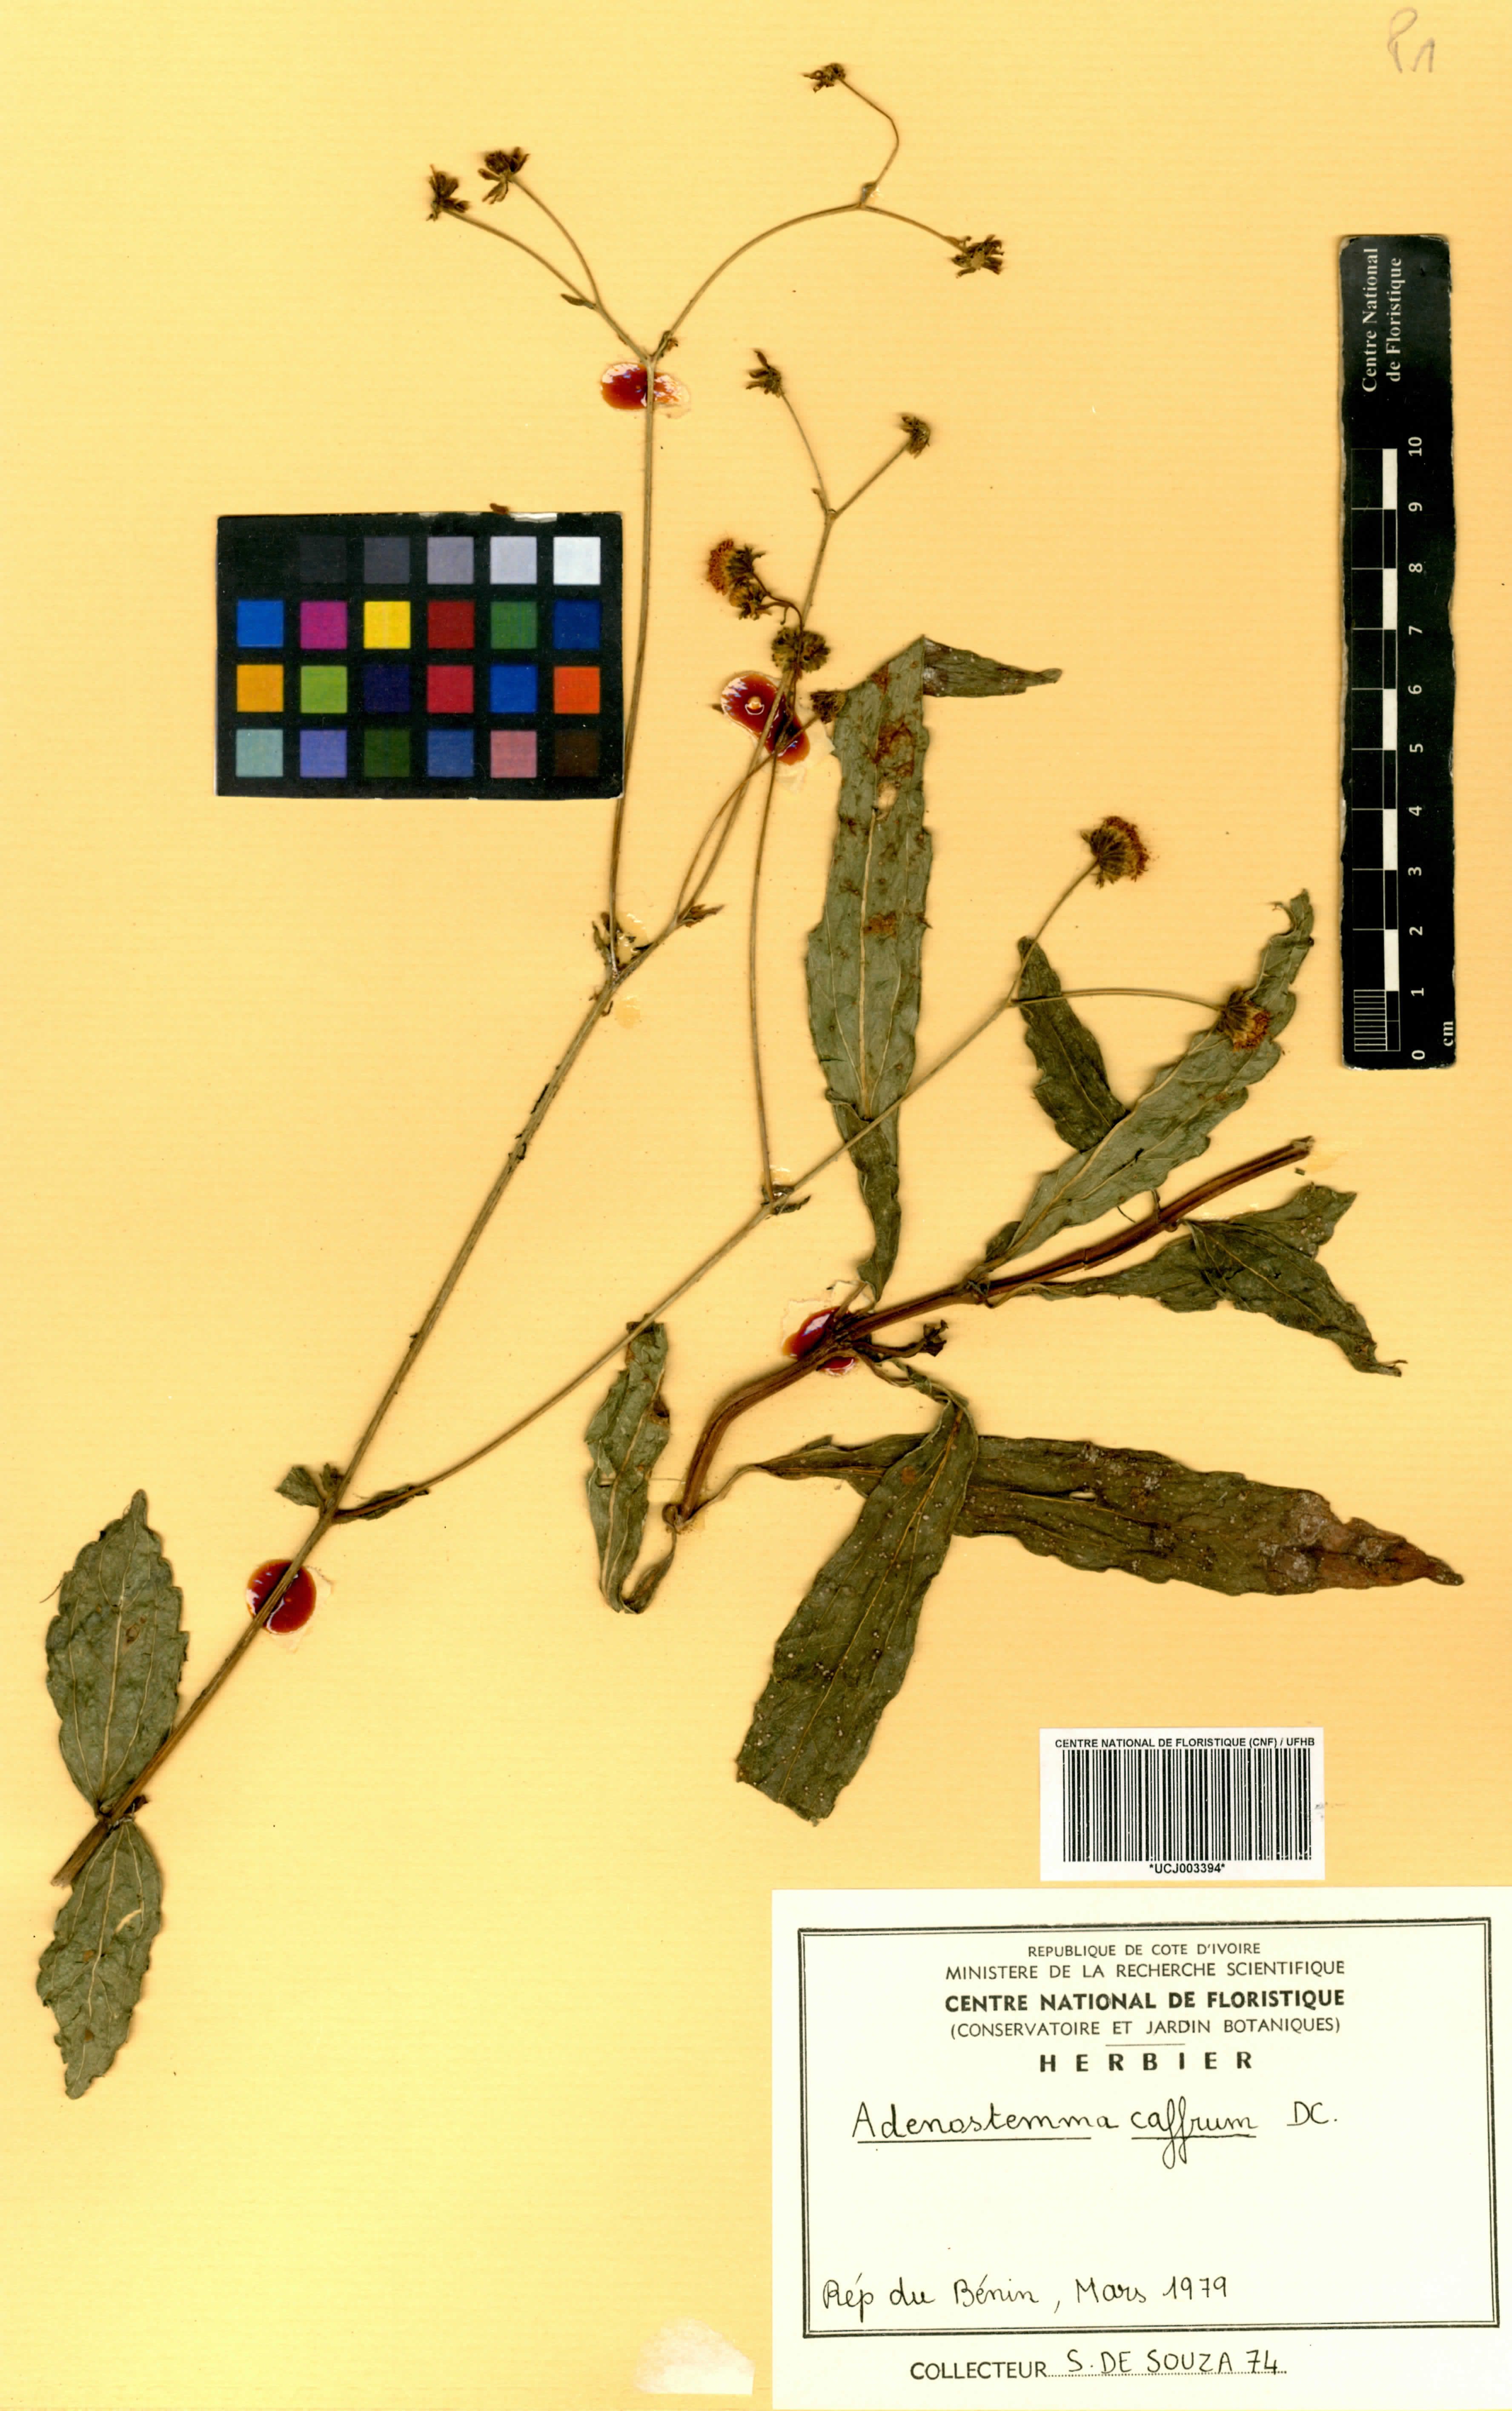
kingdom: Plantae
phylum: Tracheophyta
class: Magnoliopsida
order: Asterales
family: Asteraceae
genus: Adenostemma
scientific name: Adenostemma caffrum
